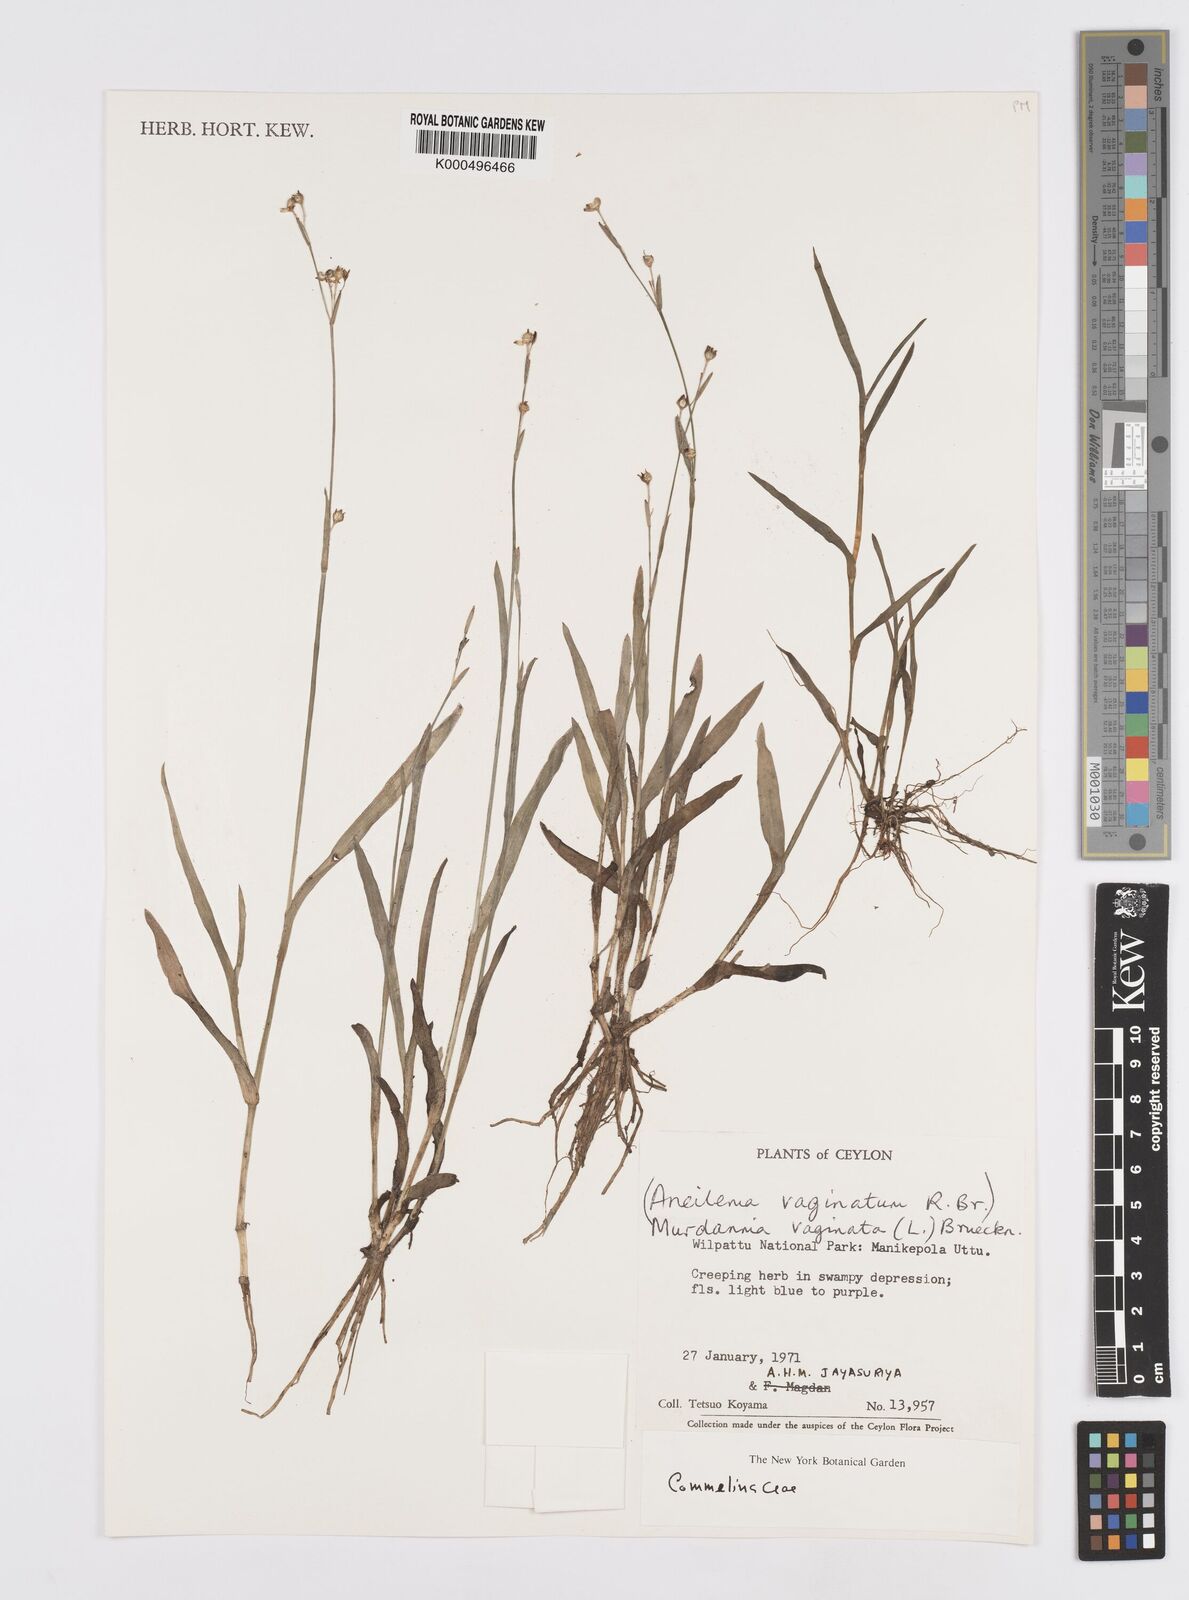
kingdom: Plantae
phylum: Tracheophyta
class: Liliopsida
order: Commelinales
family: Commelinaceae
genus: Murdannia
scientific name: Murdannia
